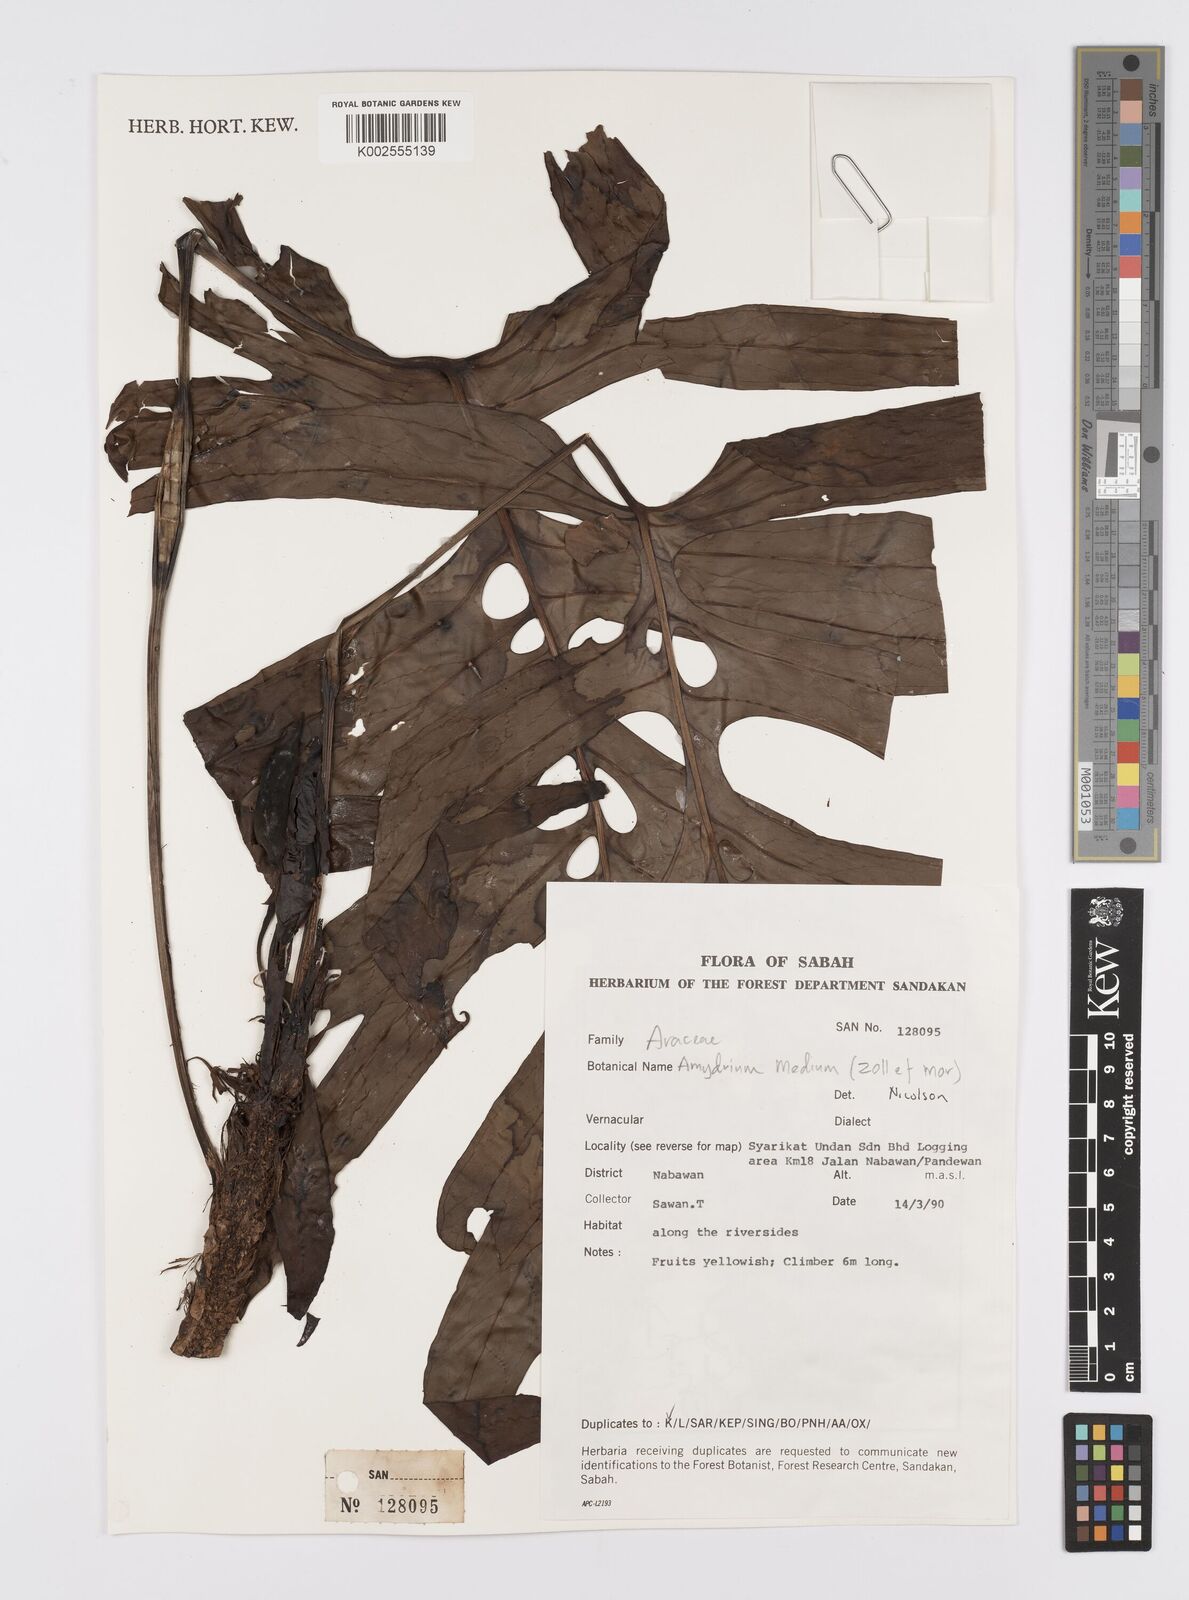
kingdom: Plantae
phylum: Tracheophyta
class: Liliopsida
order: Alismatales
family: Araceae
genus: Amydrium
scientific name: Amydrium medium
